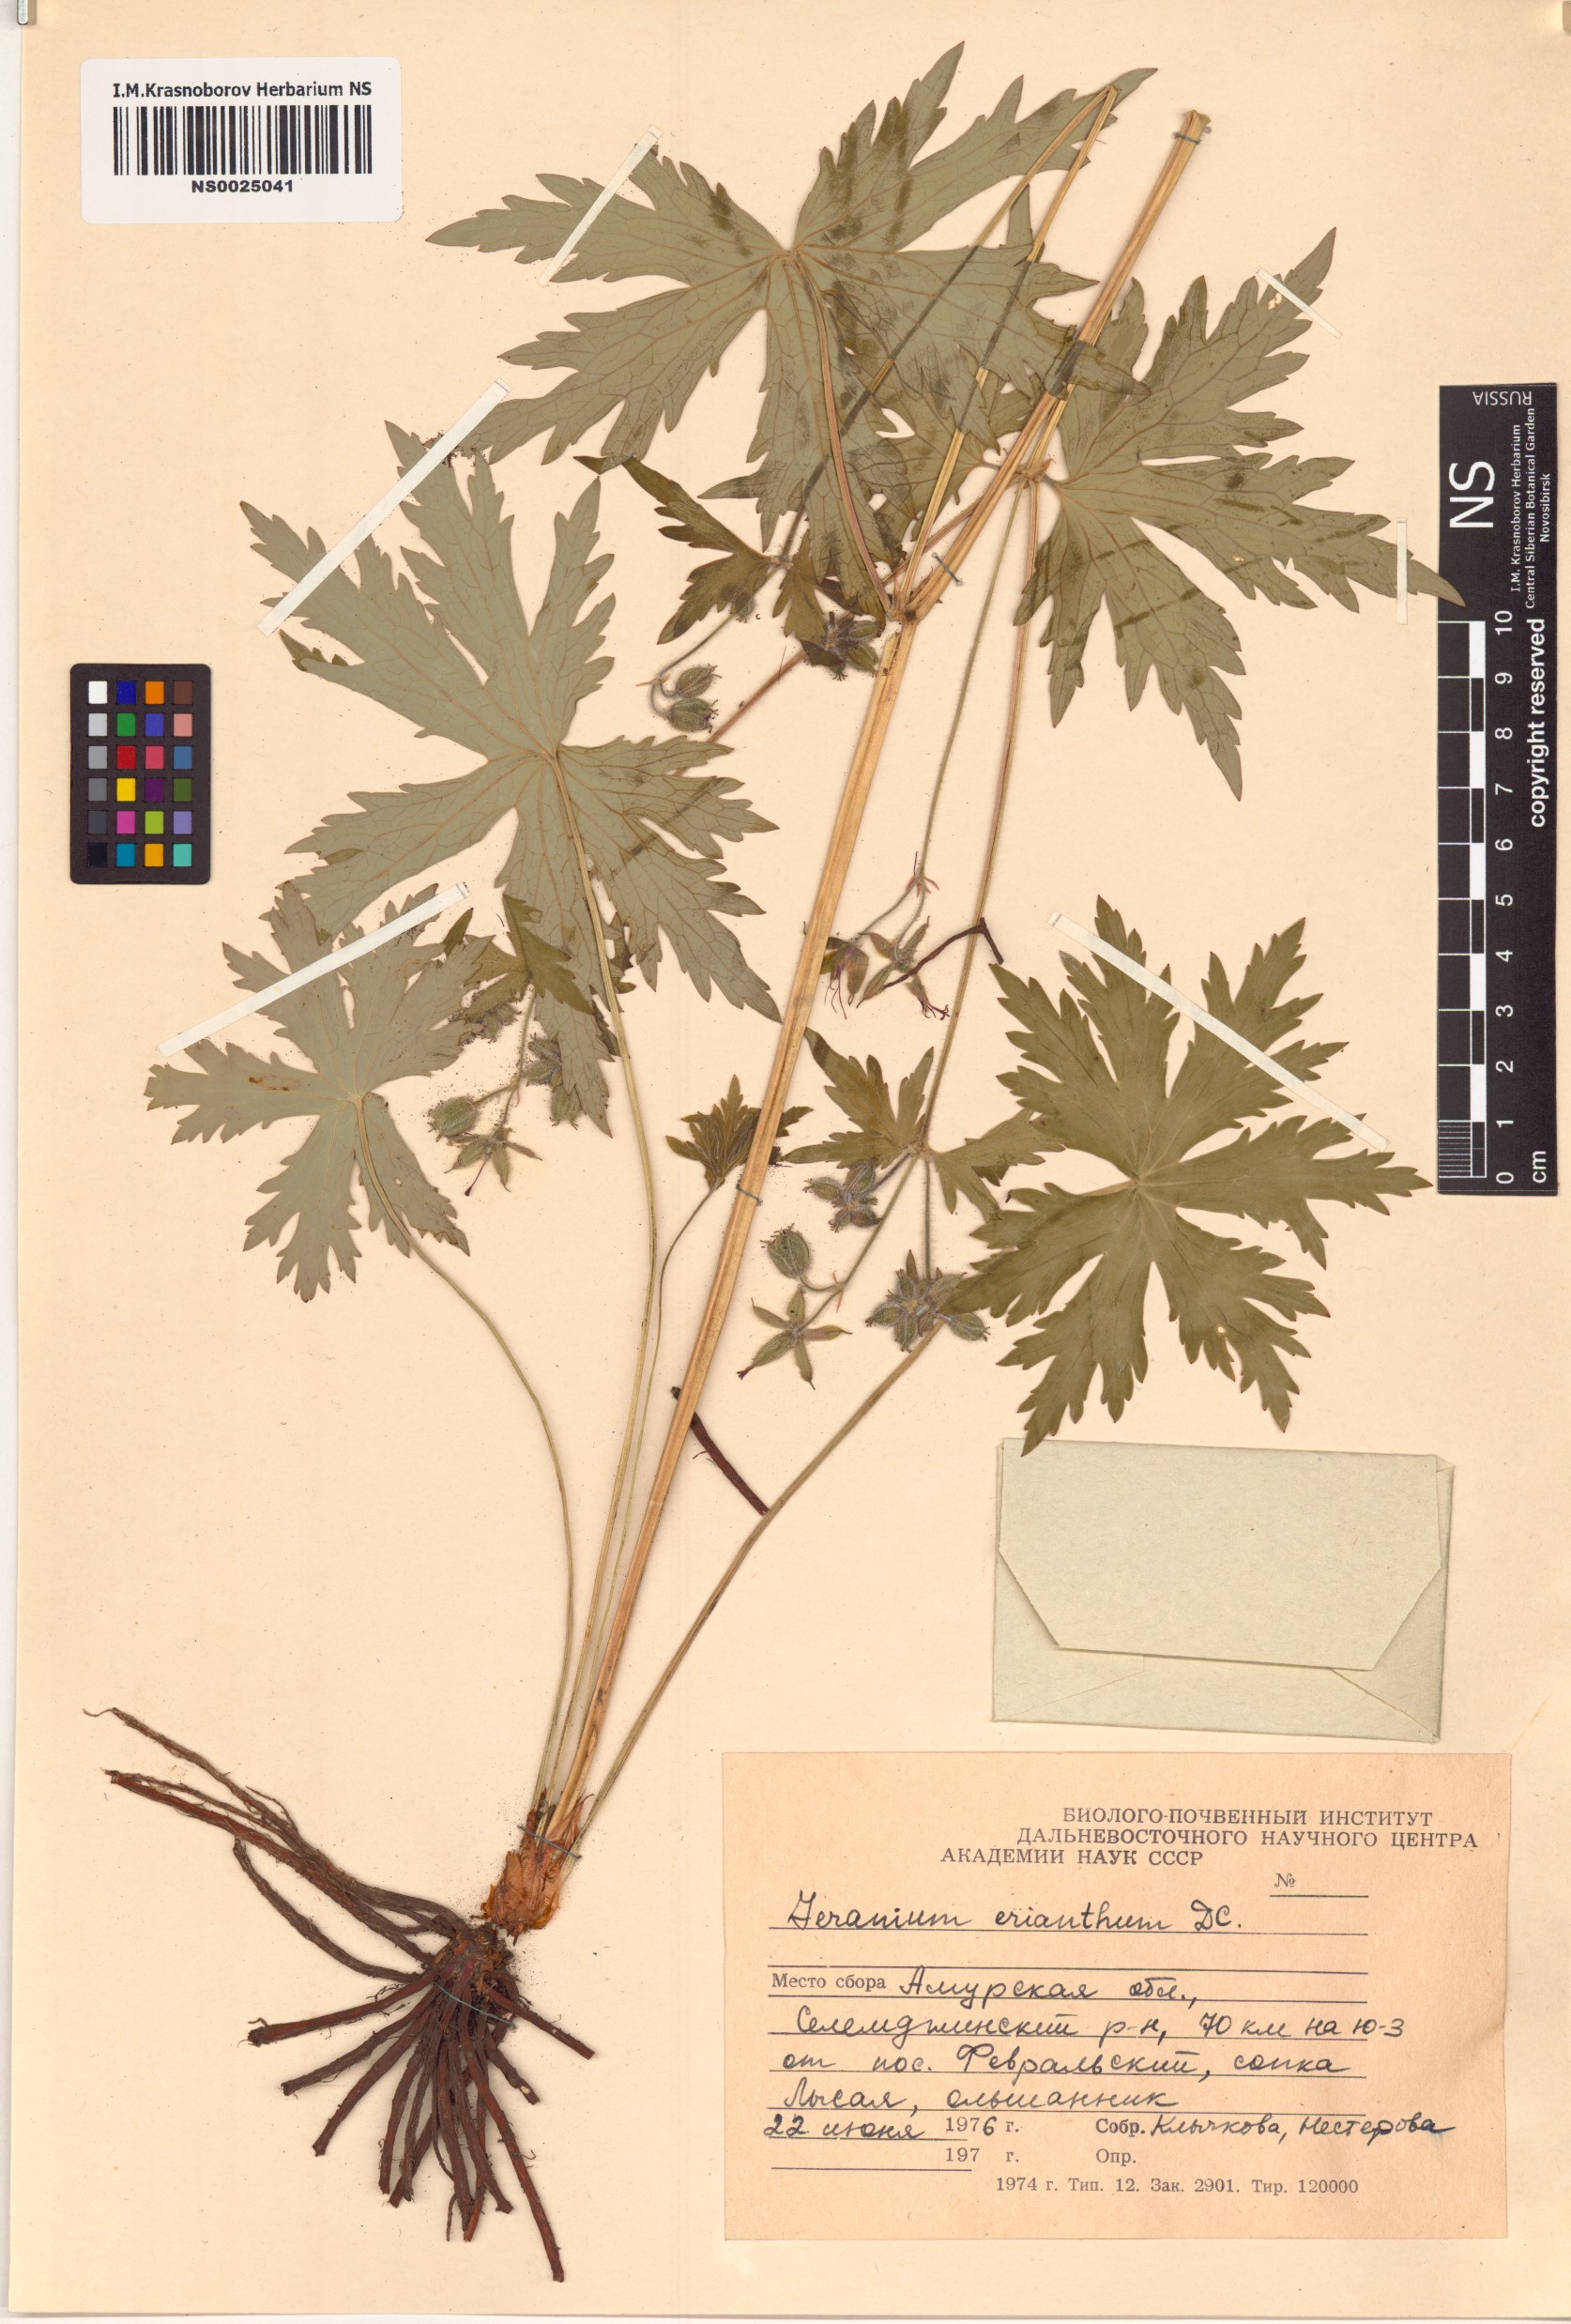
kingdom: Plantae
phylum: Tracheophyta
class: Magnoliopsida
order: Geraniales
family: Geraniaceae
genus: Geranium
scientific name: Geranium erianthum
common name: Northern crane's-bill
